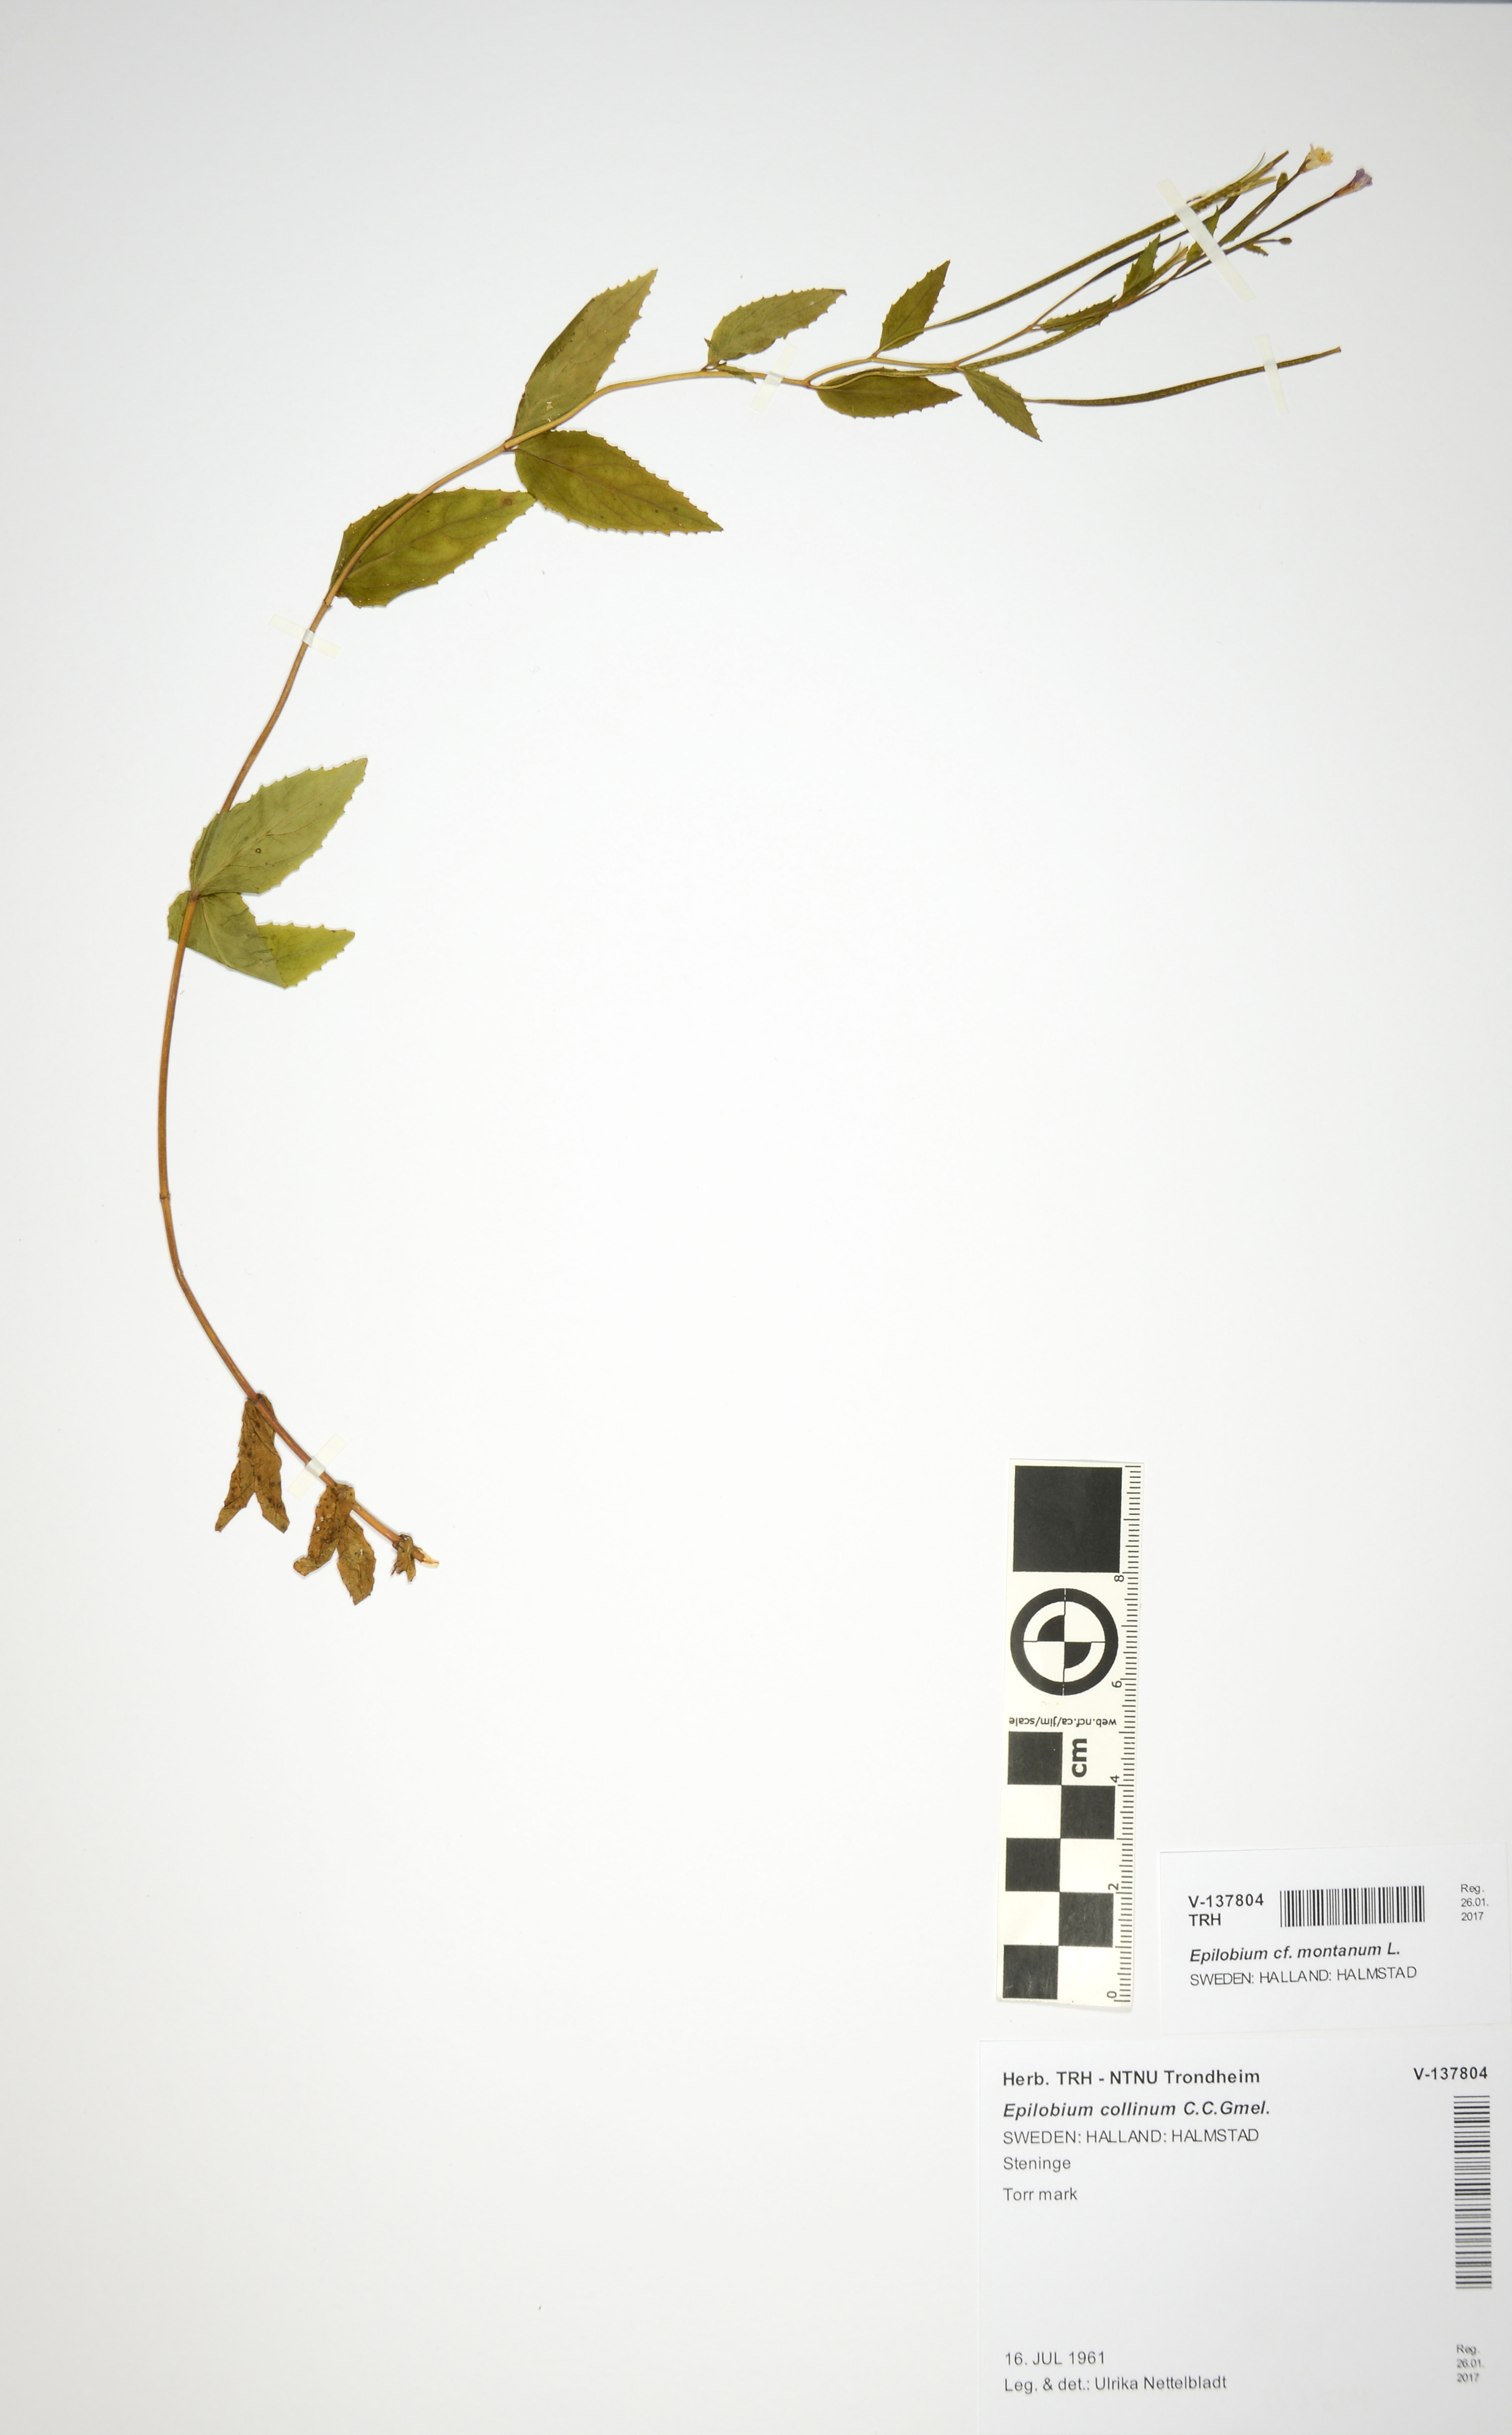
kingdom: Plantae
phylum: Tracheophyta
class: Magnoliopsida
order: Myrtales
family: Onagraceae
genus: Epilobium
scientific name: Epilobium montanum
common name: Broad-leaved willowherb
